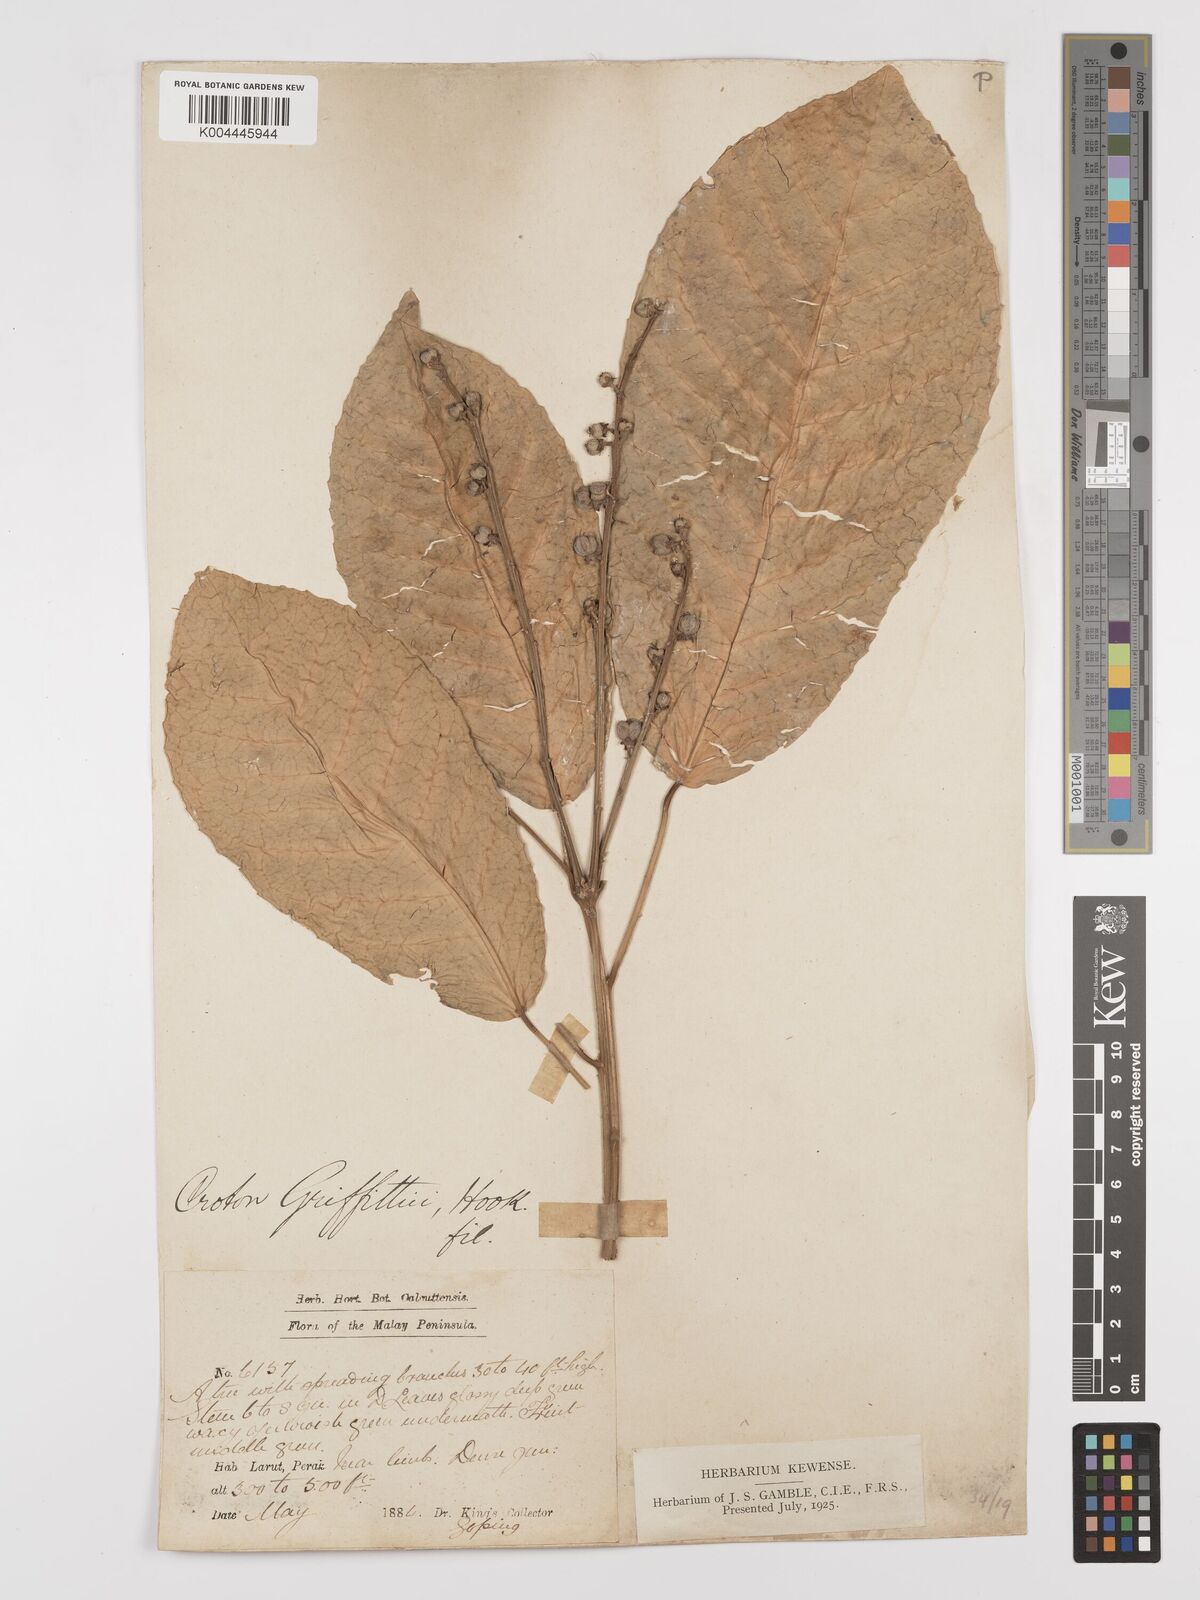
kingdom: Plantae
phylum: Tracheophyta
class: Magnoliopsida
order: Malpighiales
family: Euphorbiaceae
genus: Croton
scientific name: Croton griffithii
